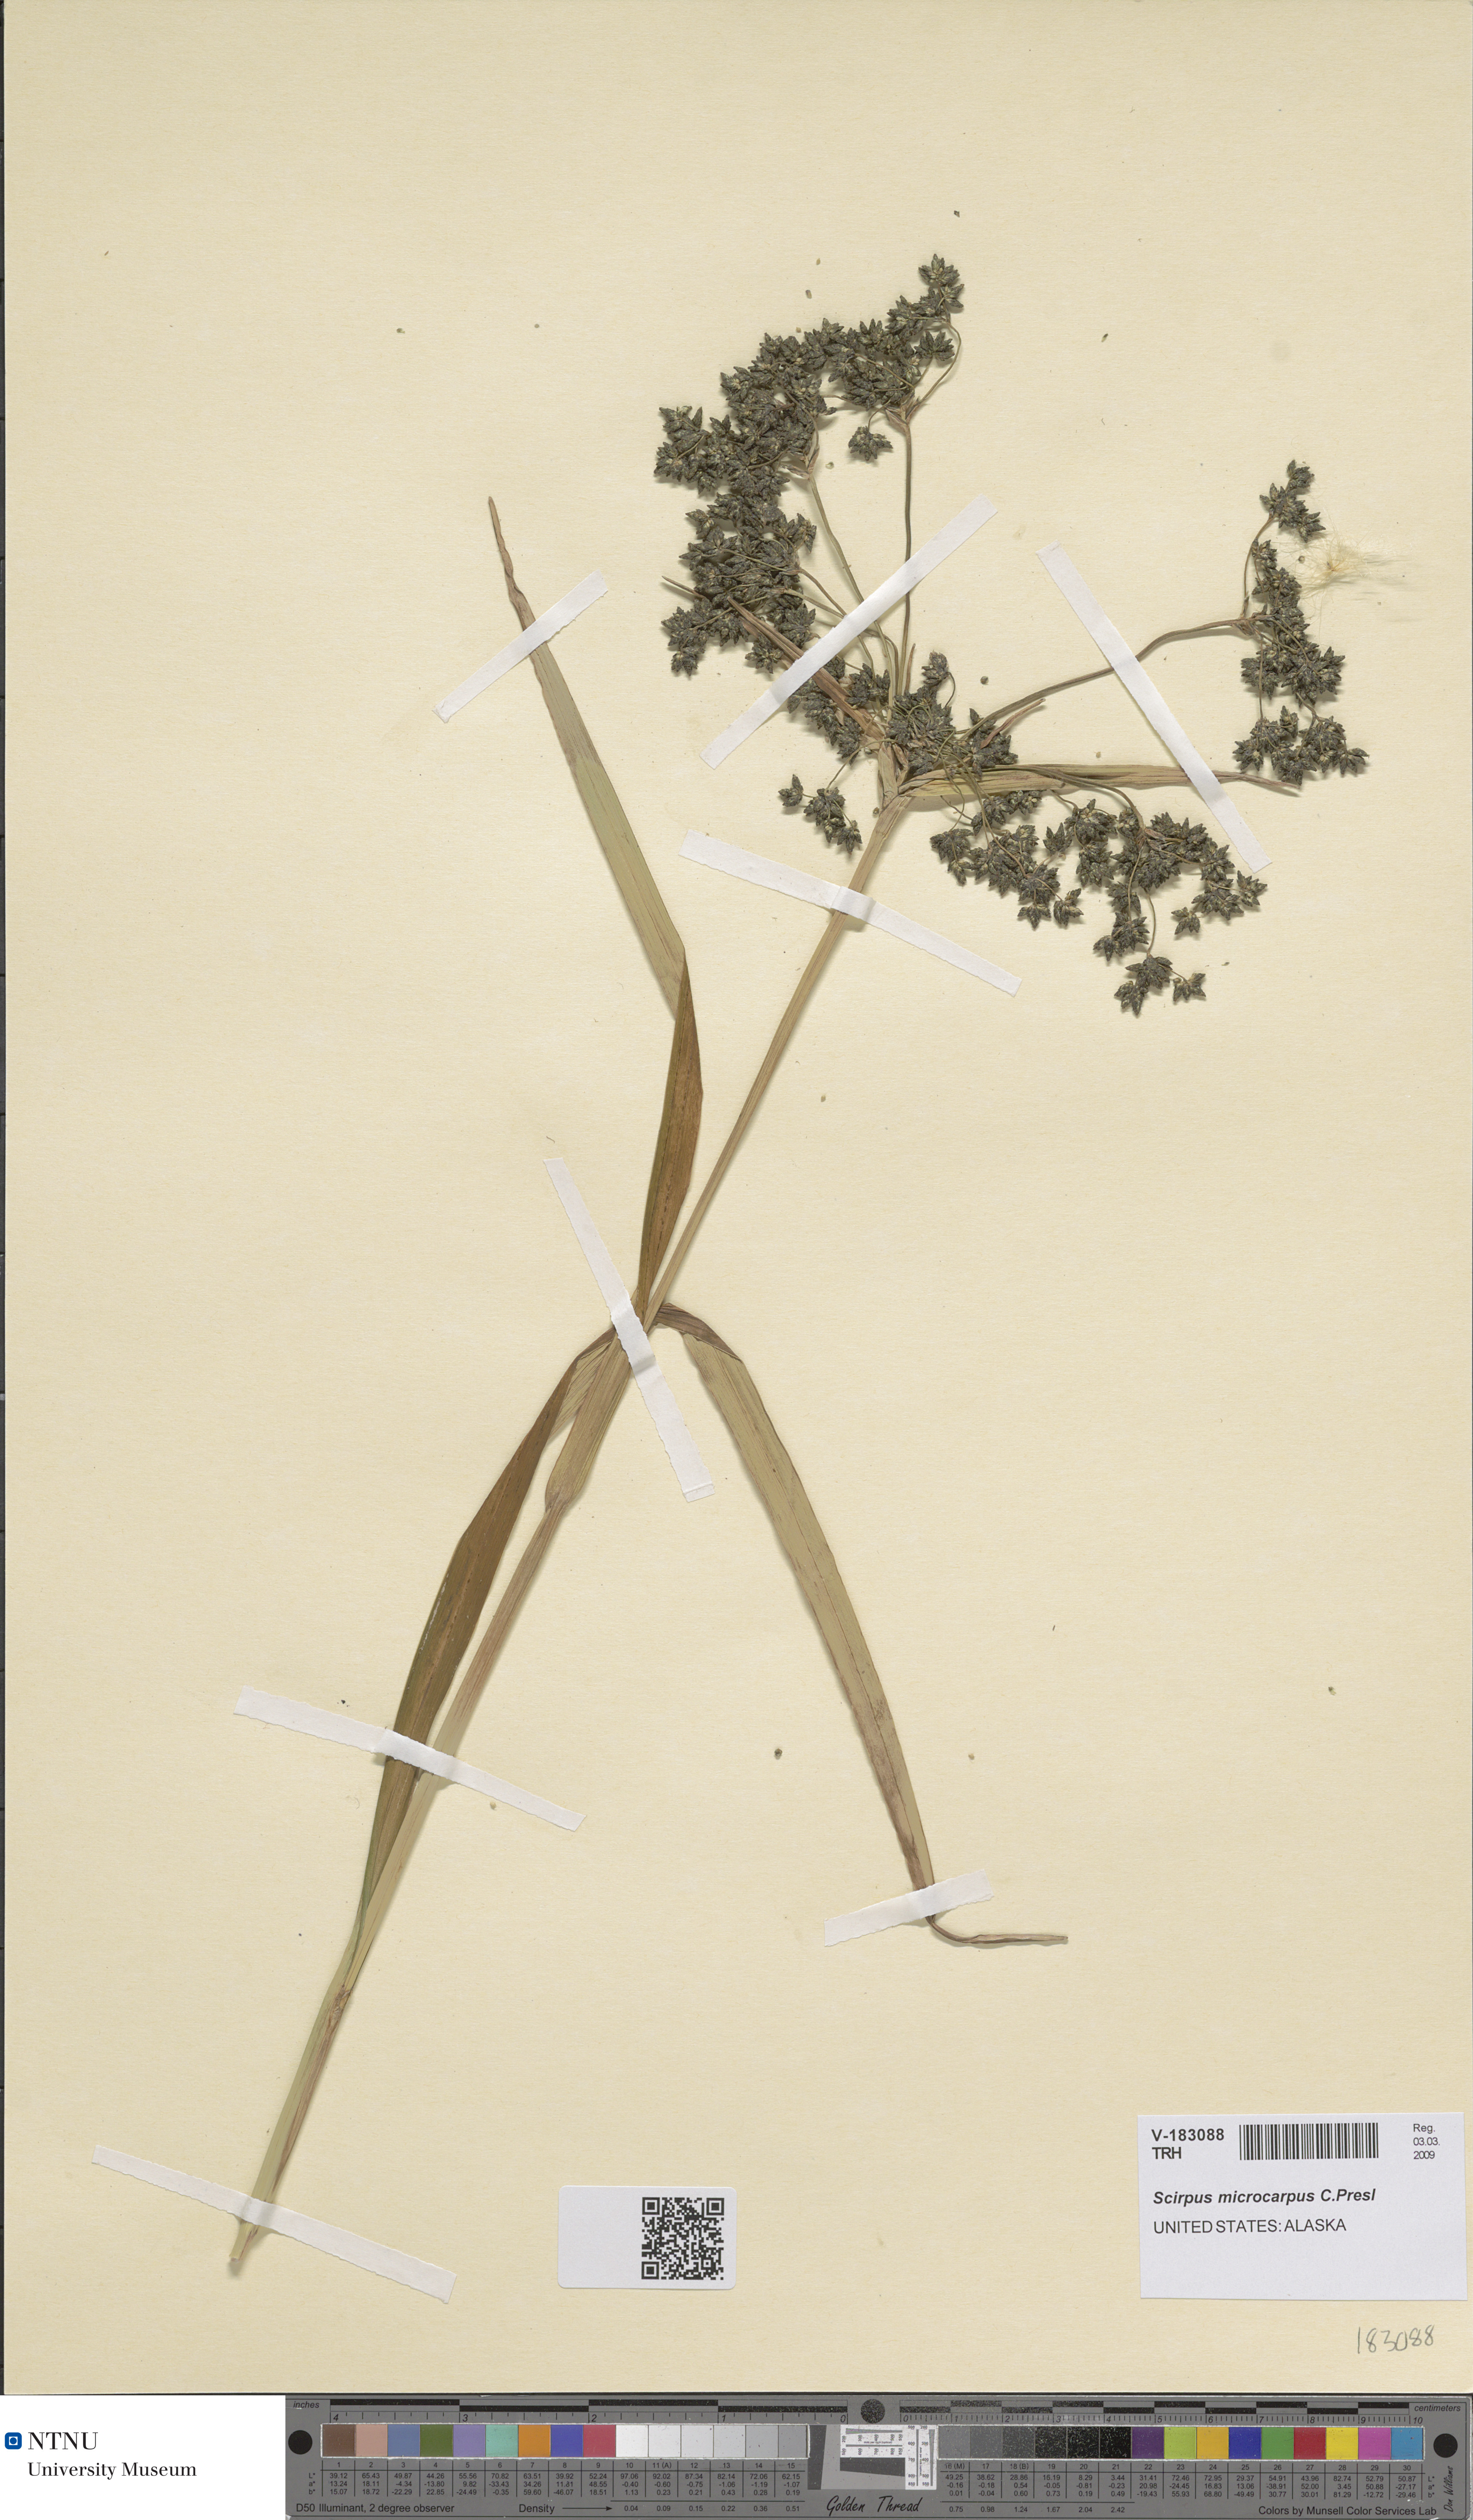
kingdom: Plantae
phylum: Tracheophyta
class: Liliopsida
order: Poales
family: Cyperaceae
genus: Scirpus
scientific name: Scirpus microcarpus
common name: Panicled bulrush
